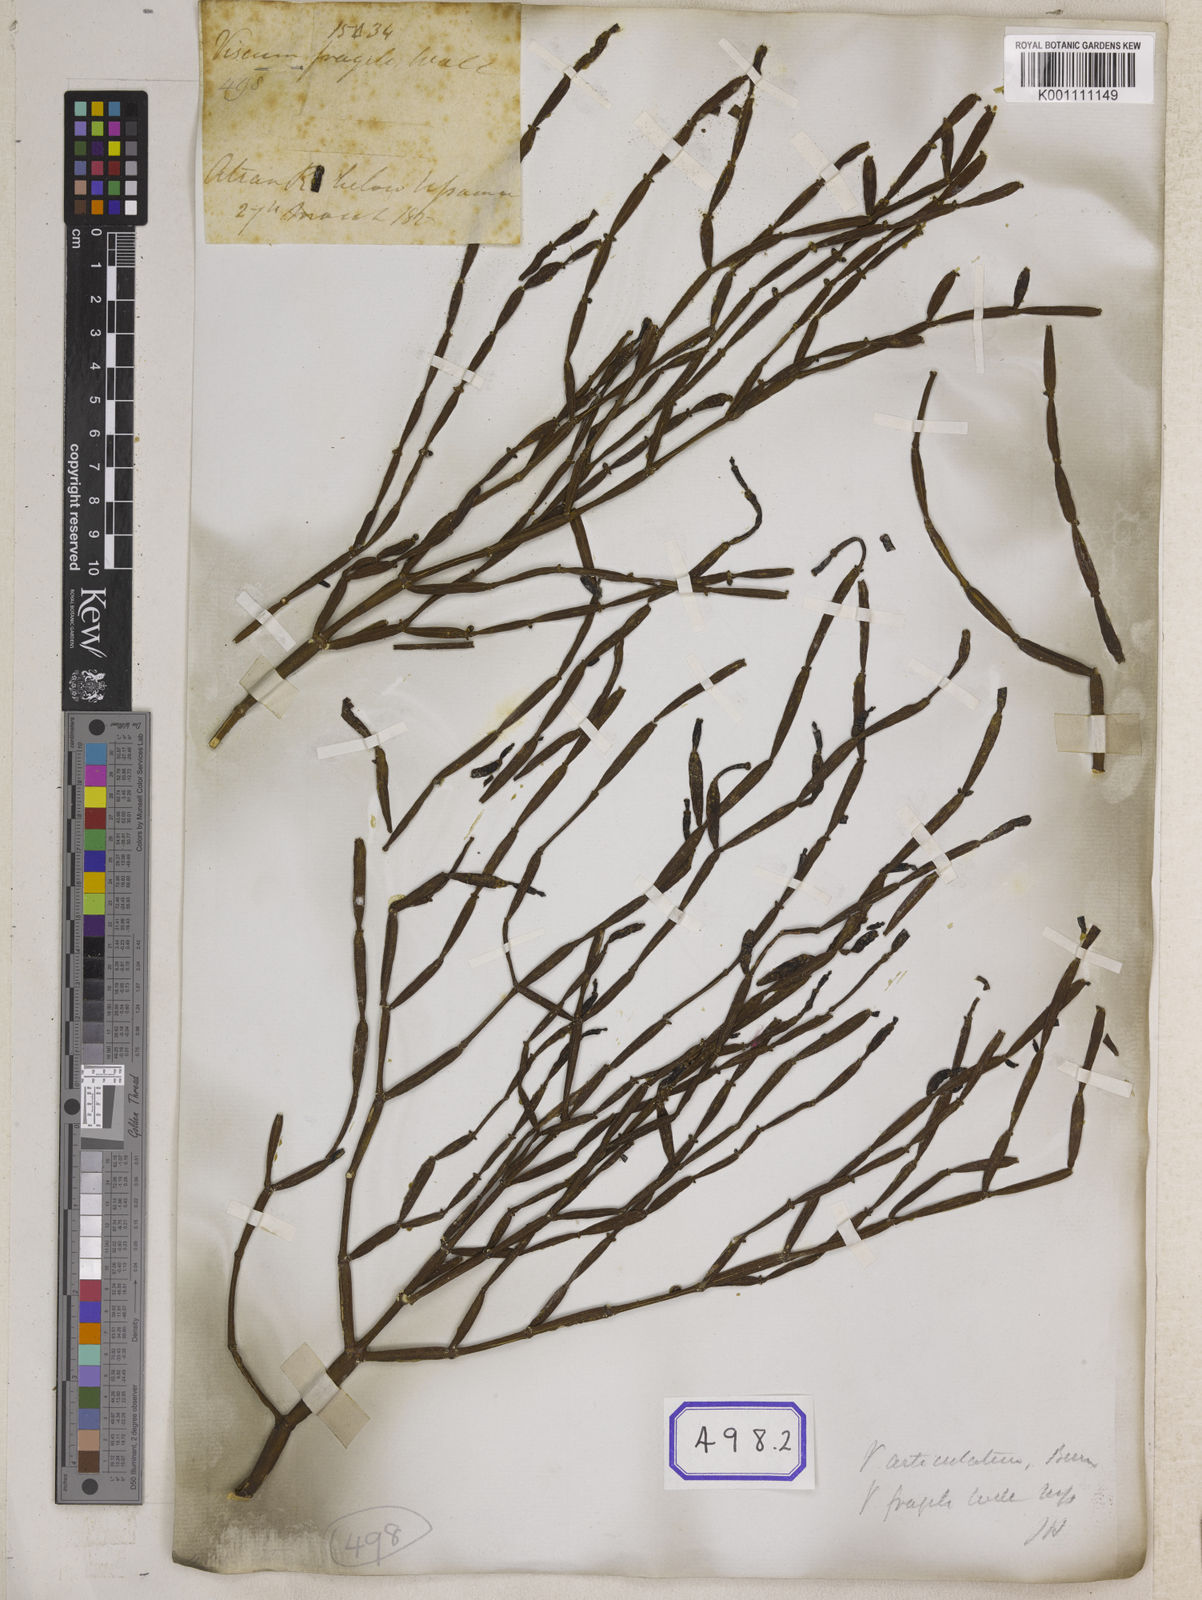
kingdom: Plantae
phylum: Tracheophyta
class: Magnoliopsida
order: Santalales
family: Viscaceae
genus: Viscum
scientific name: Viscum
